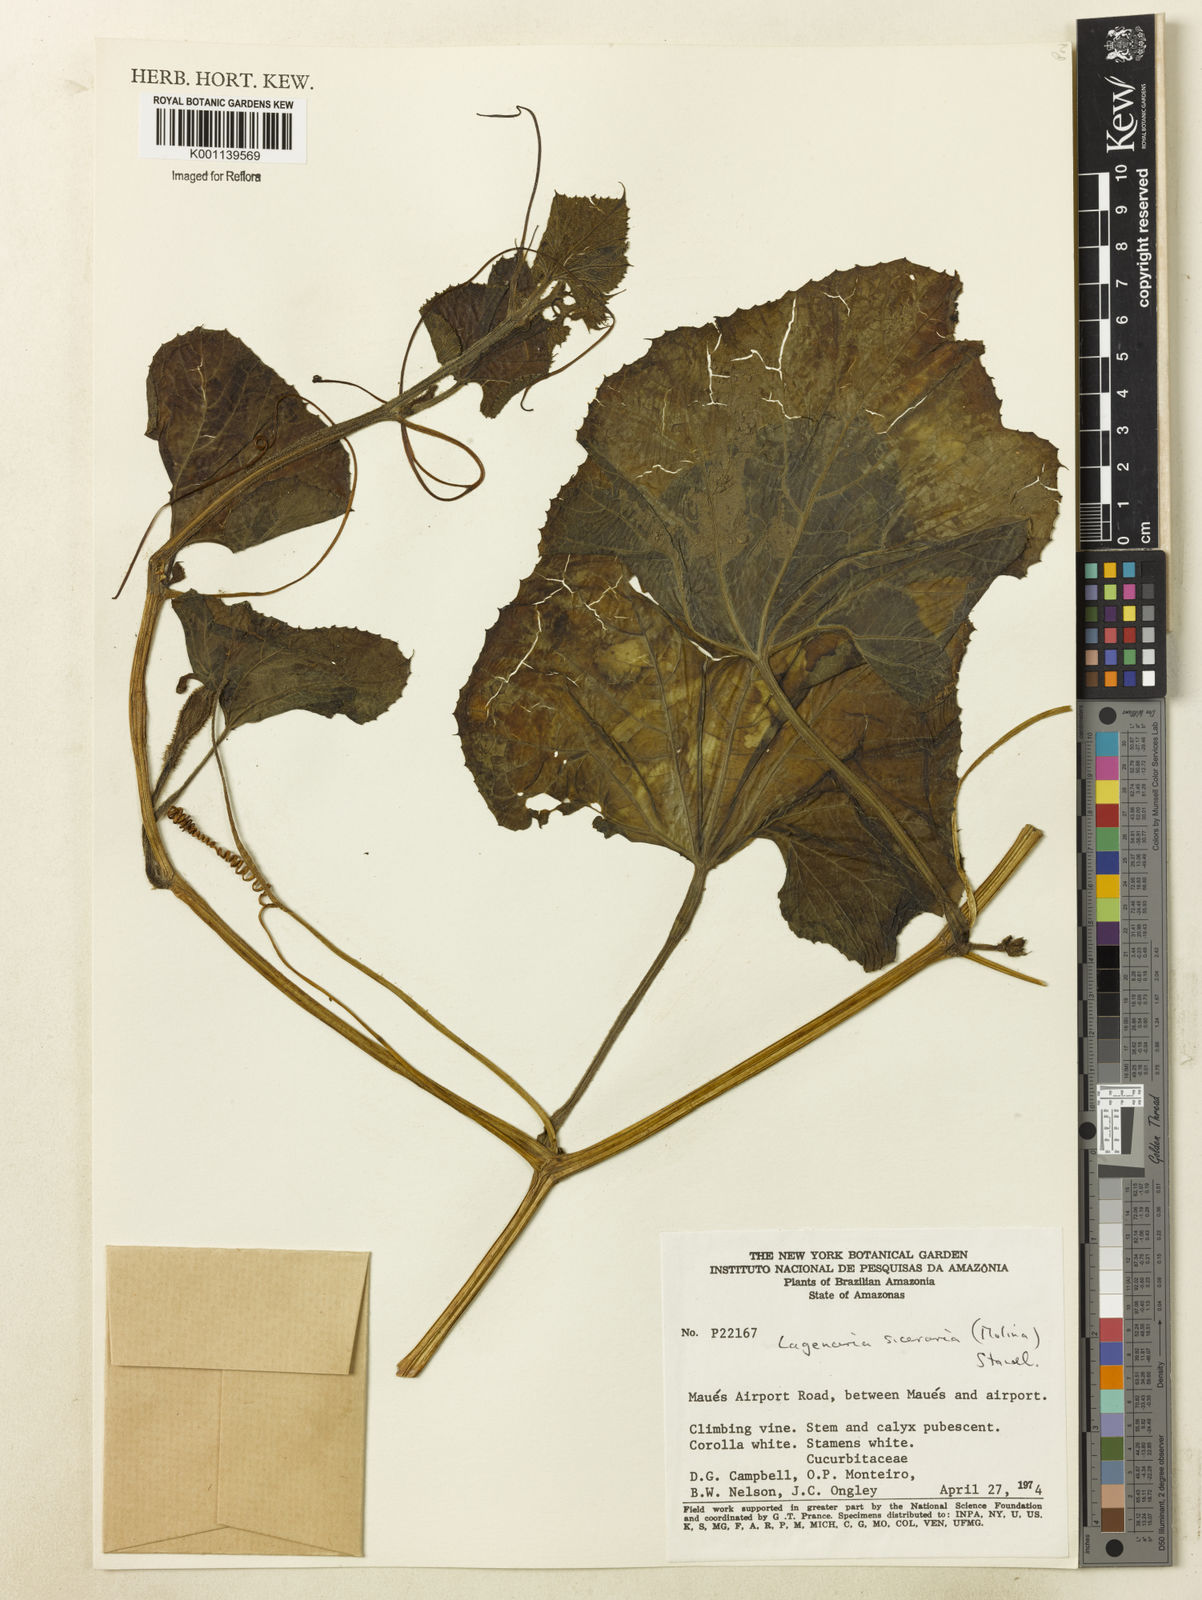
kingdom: Plantae
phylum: Tracheophyta
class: Magnoliopsida
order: Cucurbitales
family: Cucurbitaceae
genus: Lagenaria
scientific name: Lagenaria siceraria
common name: Bottle gourd
